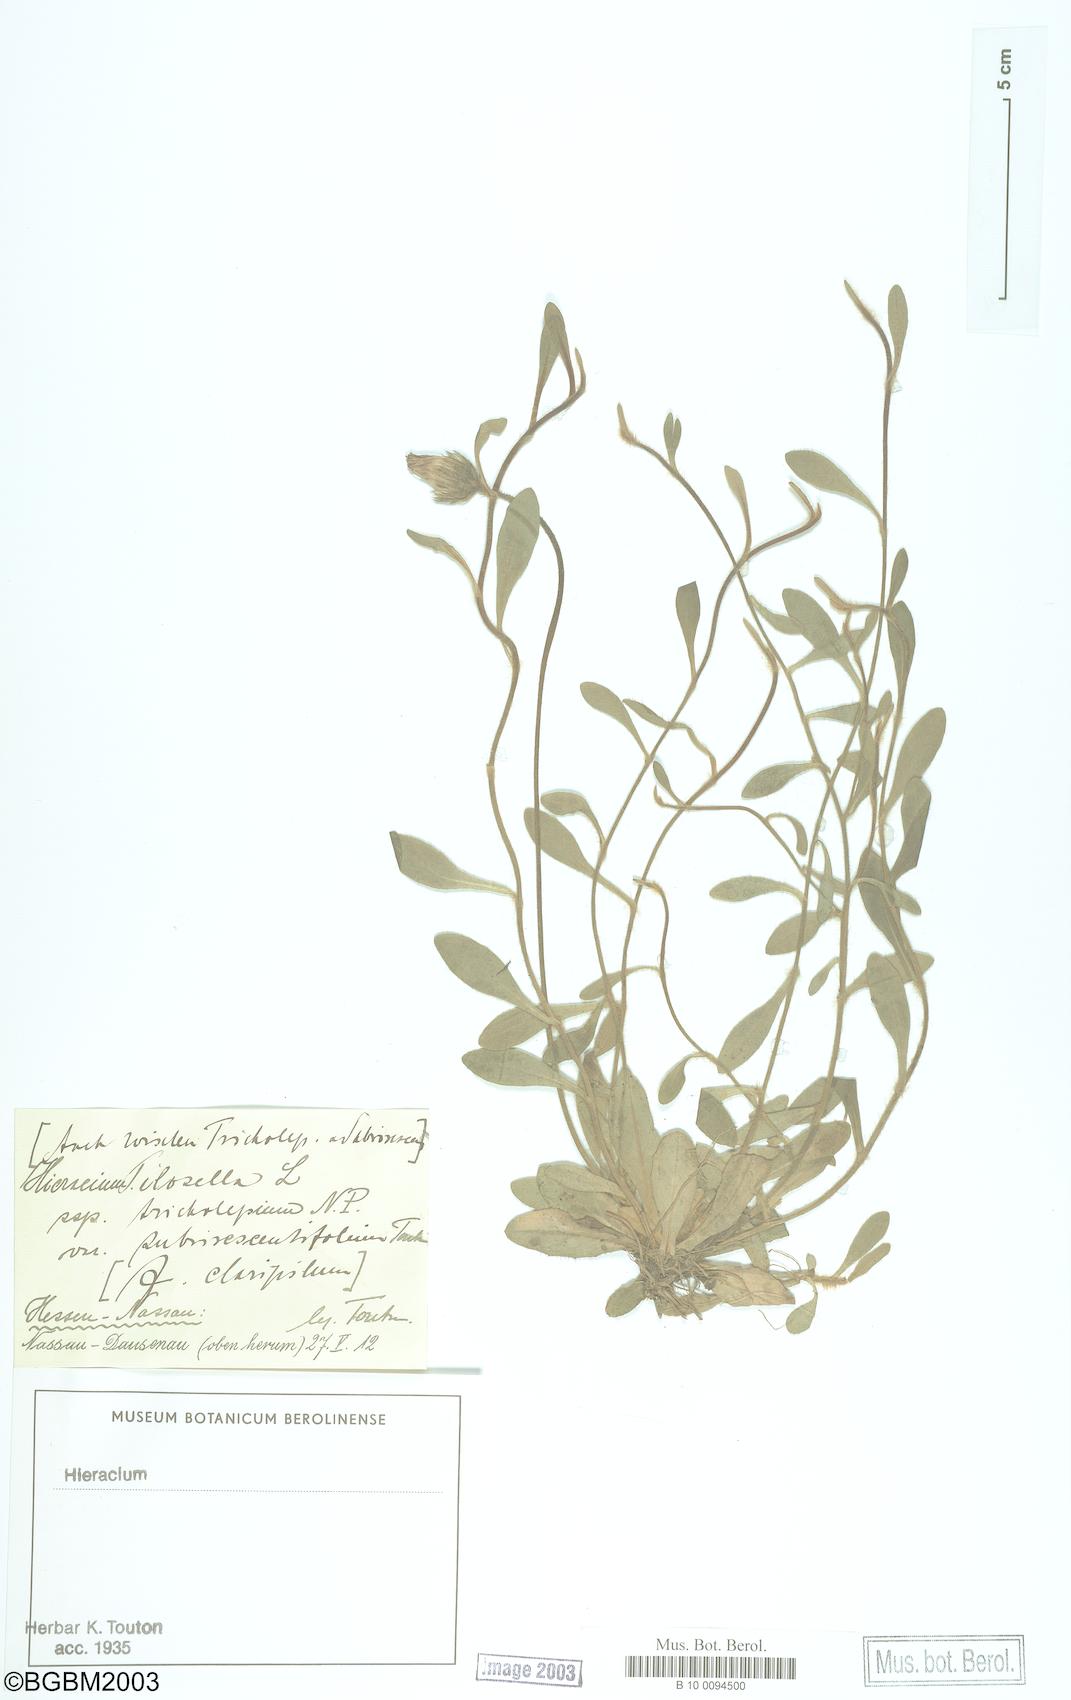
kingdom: Plantae
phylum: Tracheophyta
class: Magnoliopsida
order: Asterales
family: Asteraceae
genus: Pilosella
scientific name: Pilosella officinarum
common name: Mouse-ear hawkweed
